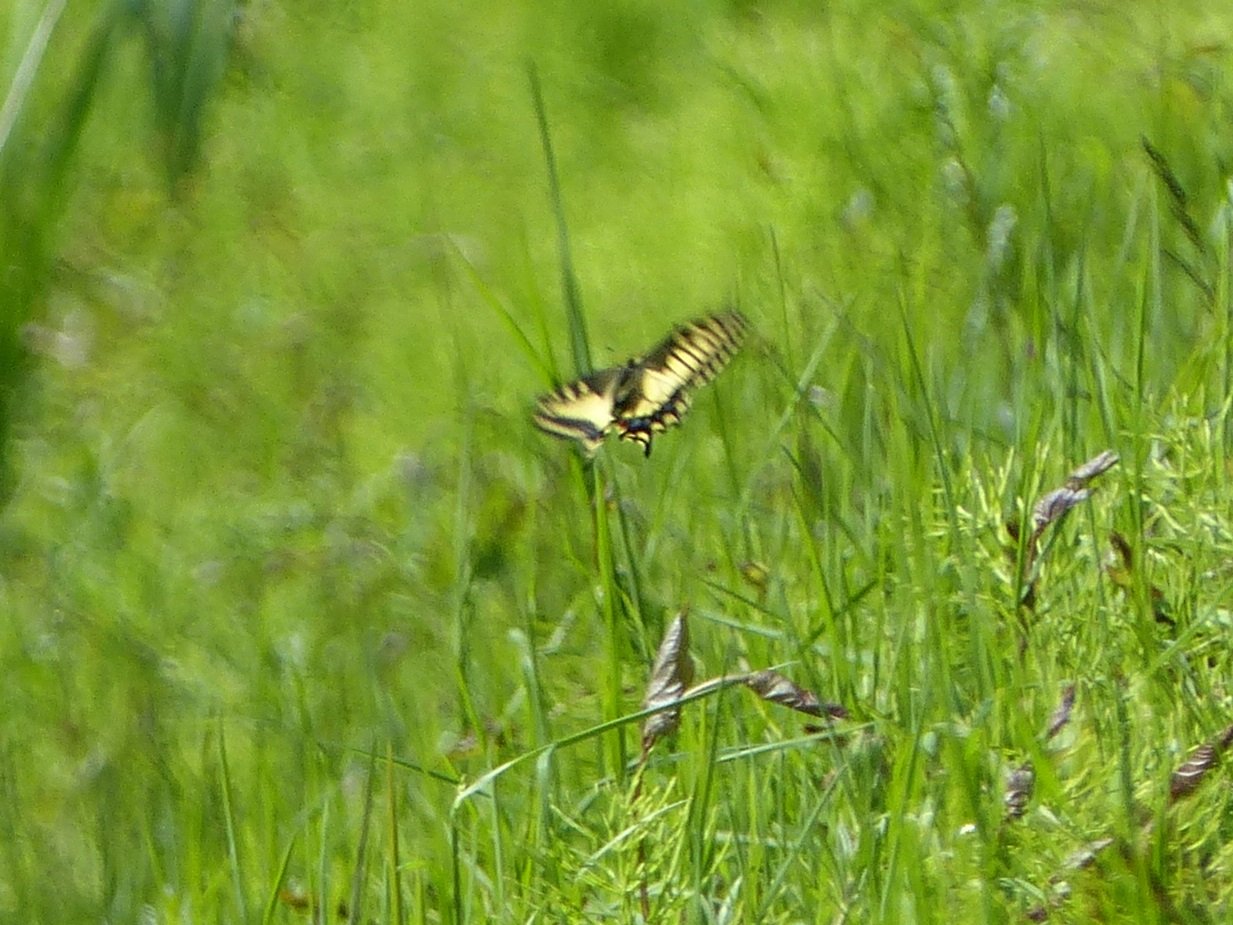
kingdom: Animalia
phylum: Arthropoda
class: Insecta
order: Lepidoptera
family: Papilionidae
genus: Papilio
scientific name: Papilio zelicaon
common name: Anise Swallowtail
